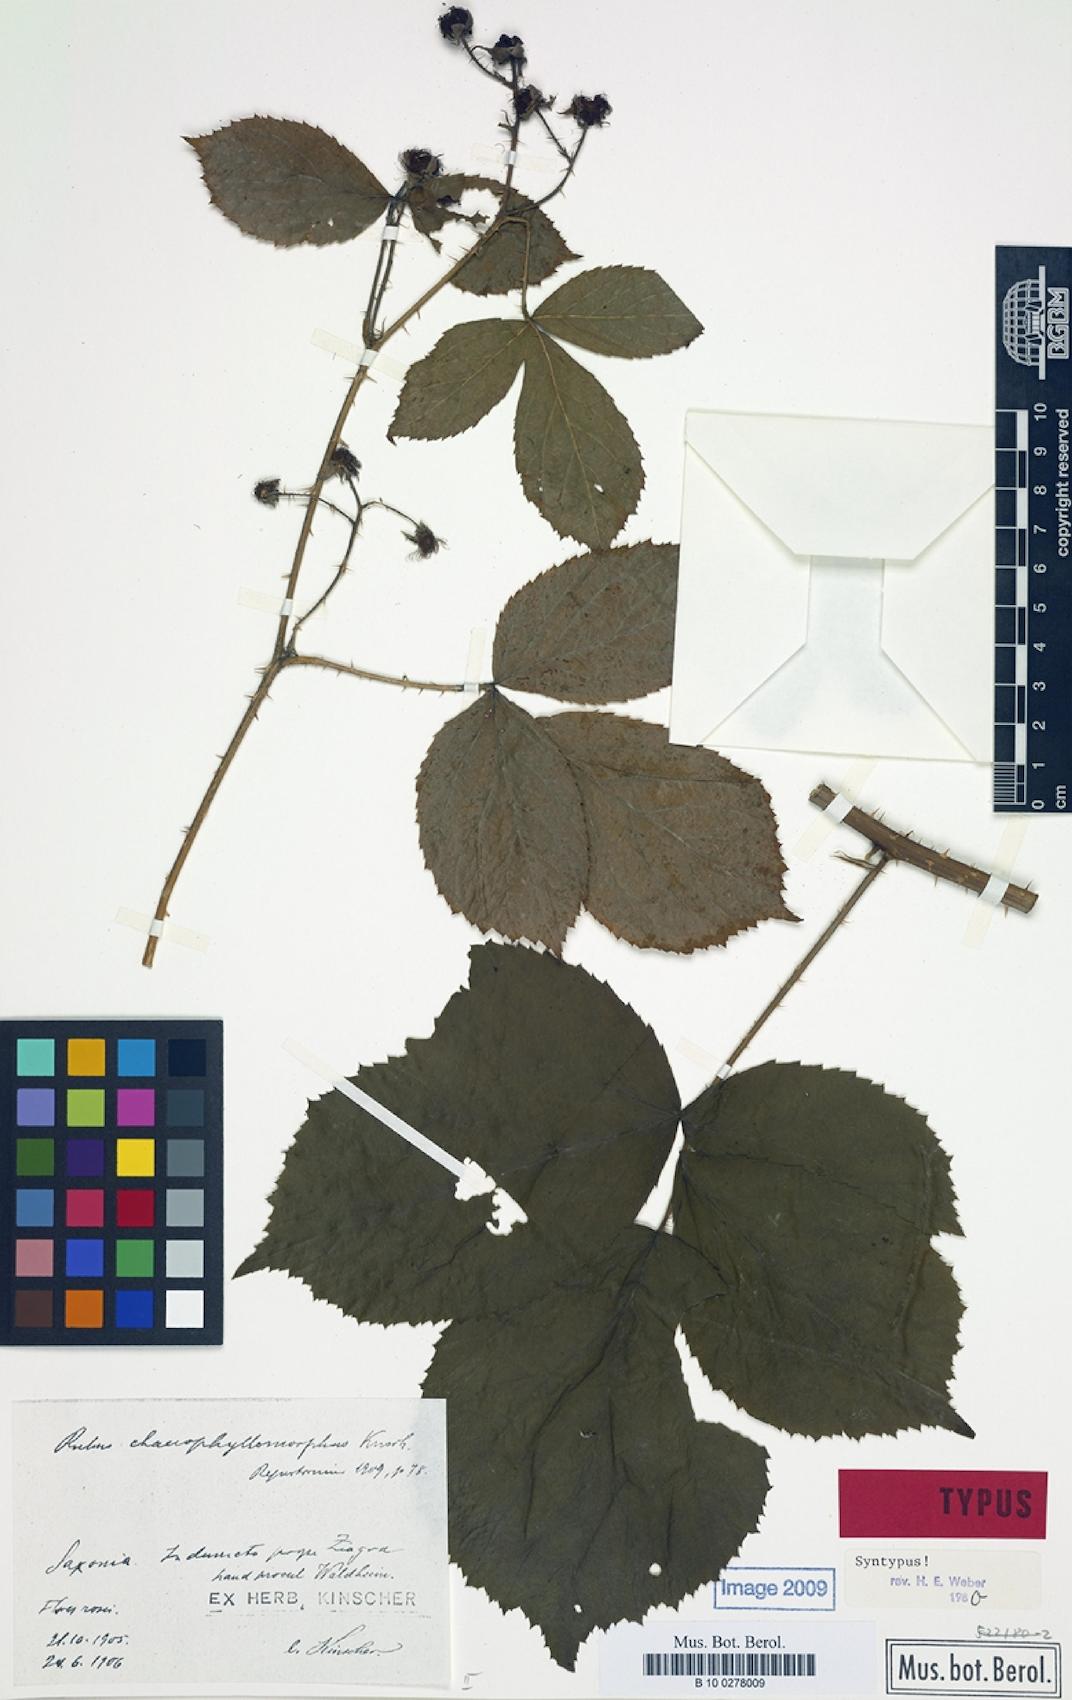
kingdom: Plantae
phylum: Tracheophyta
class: Magnoliopsida
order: Rosales
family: Rosaceae
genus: Rubus
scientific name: Rubus chaerophyllomorphus
